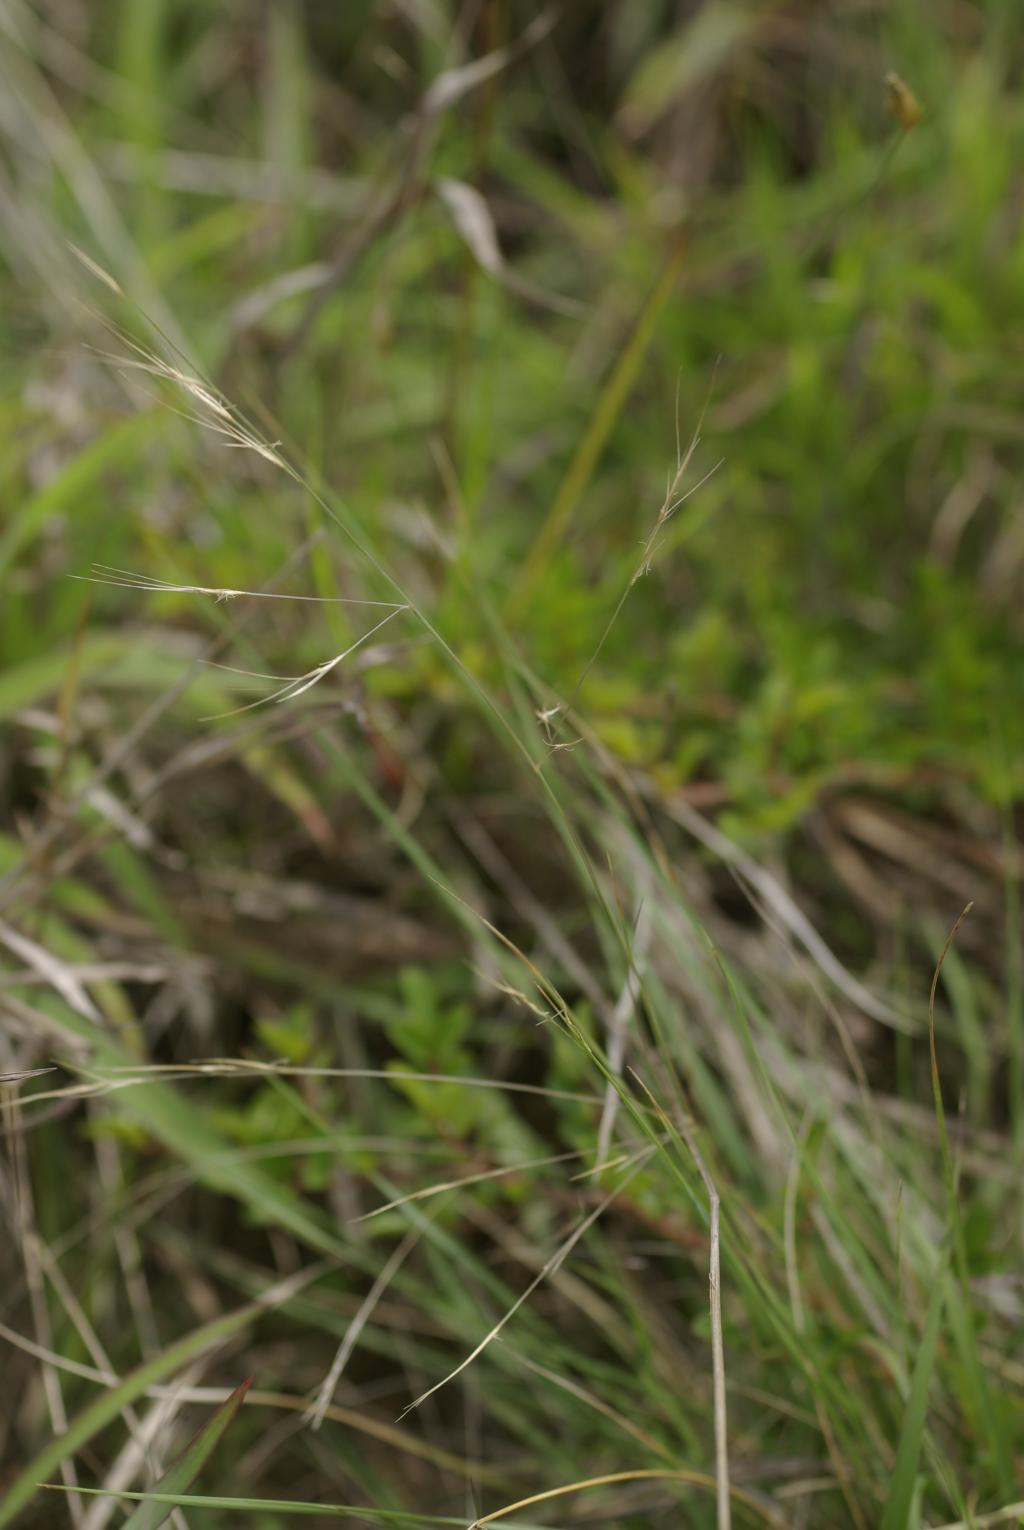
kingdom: Plantae
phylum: Tracheophyta
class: Liliopsida
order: Poales
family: Poaceae
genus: Aristida
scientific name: Aristida chinensis
